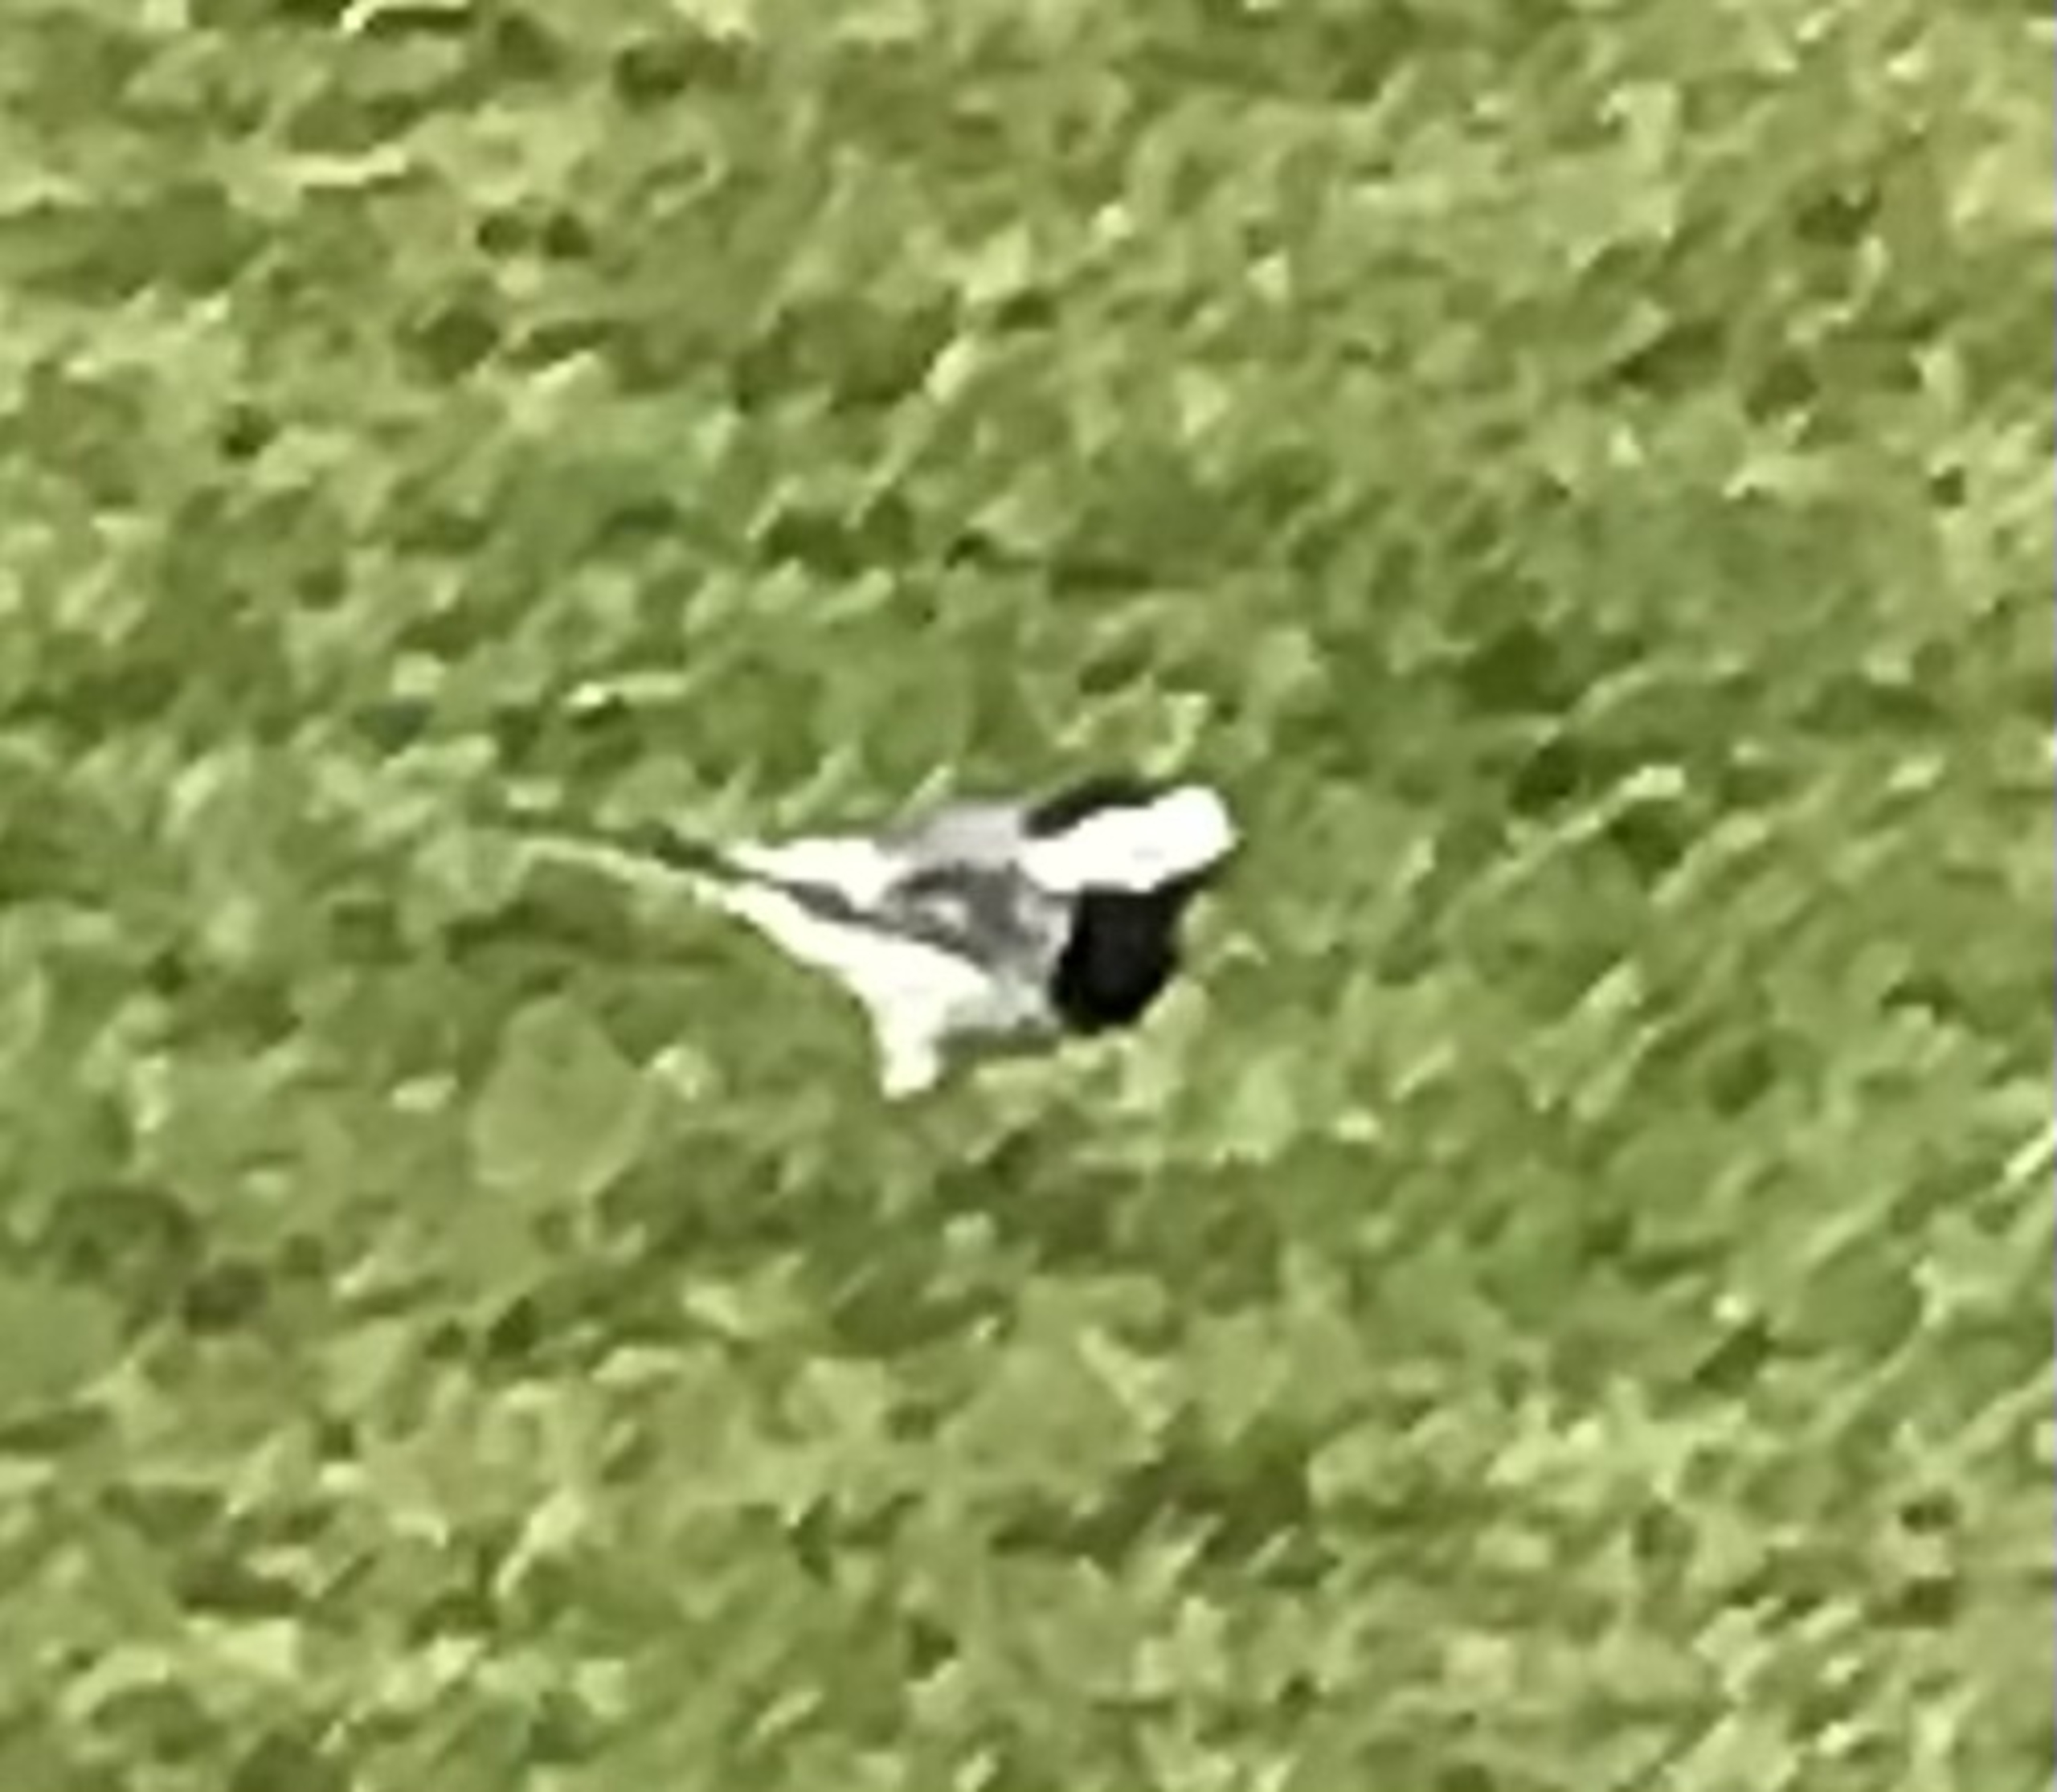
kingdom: Animalia
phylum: Chordata
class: Aves
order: Passeriformes
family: Motacillidae
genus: Motacilla
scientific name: Motacilla alba
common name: Hvid vipstjert
